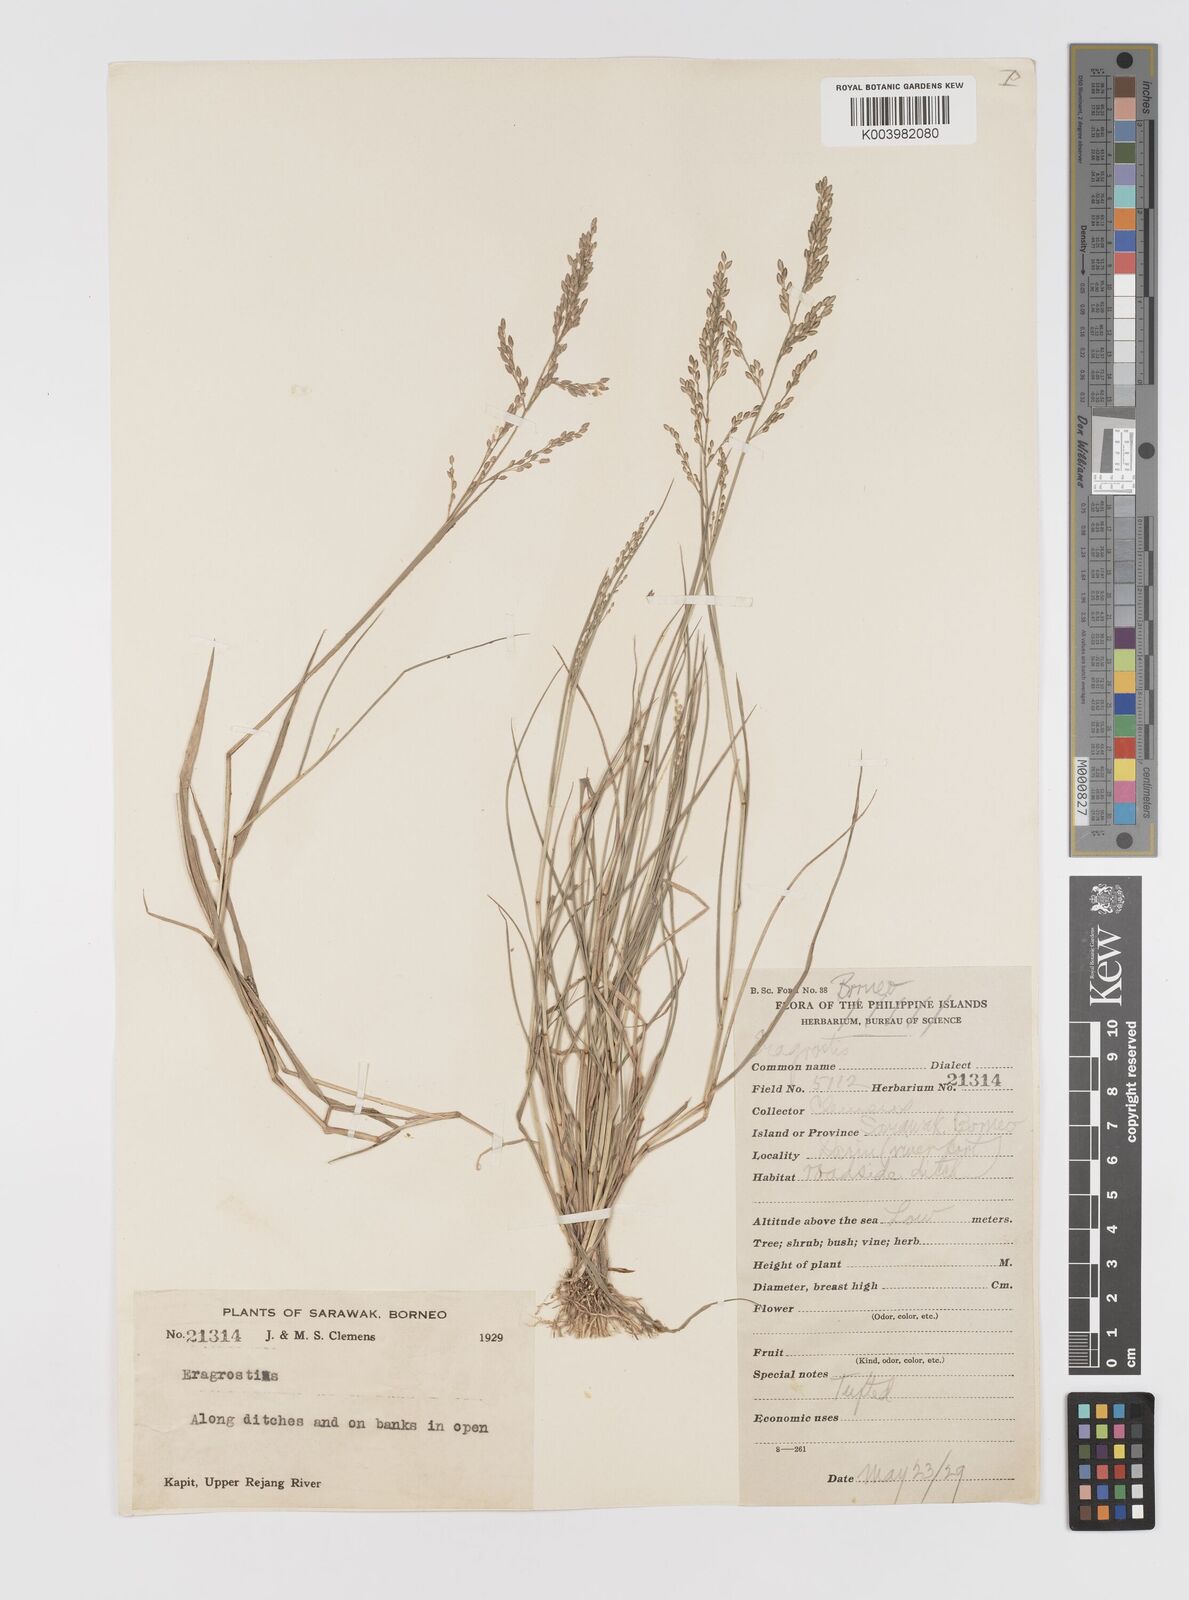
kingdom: Plantae
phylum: Tracheophyta
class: Liliopsida
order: Poales
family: Poaceae
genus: Eragrostis
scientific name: Eragrostis montana
